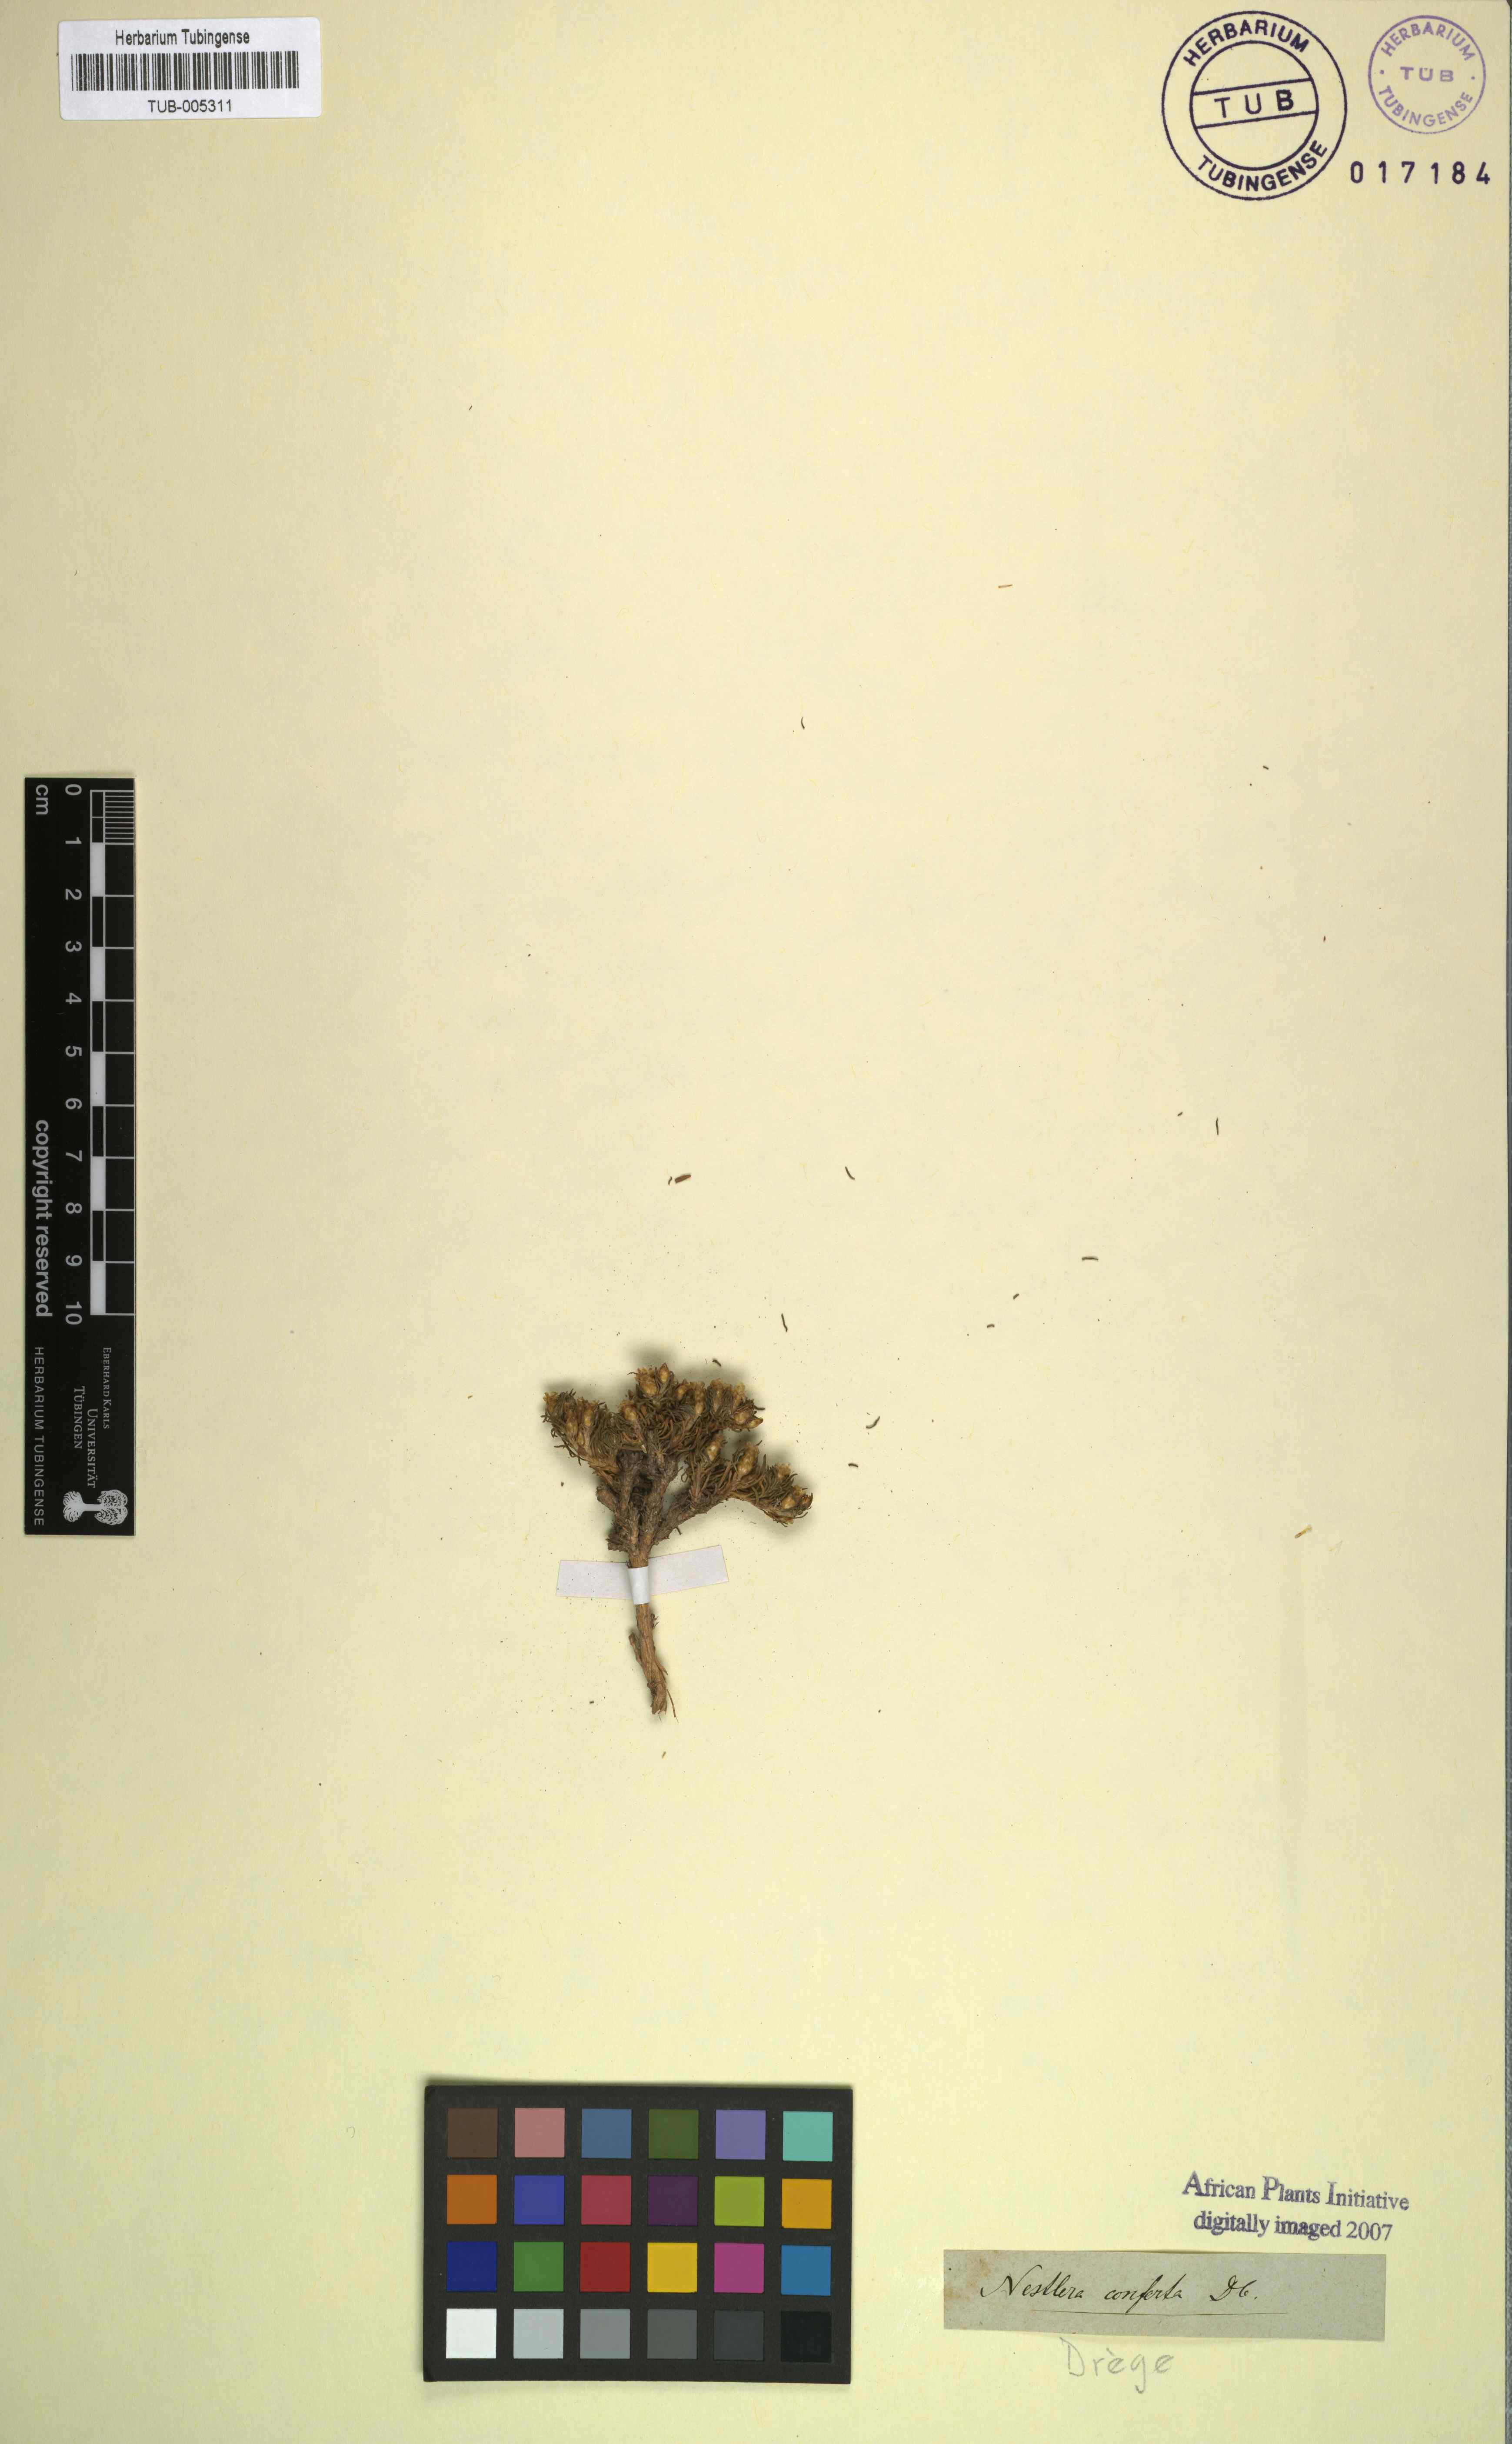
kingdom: Plantae
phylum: Tracheophyta
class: Magnoliopsida
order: Asterales
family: Asteraceae
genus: Oedera
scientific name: Oedera humilis
